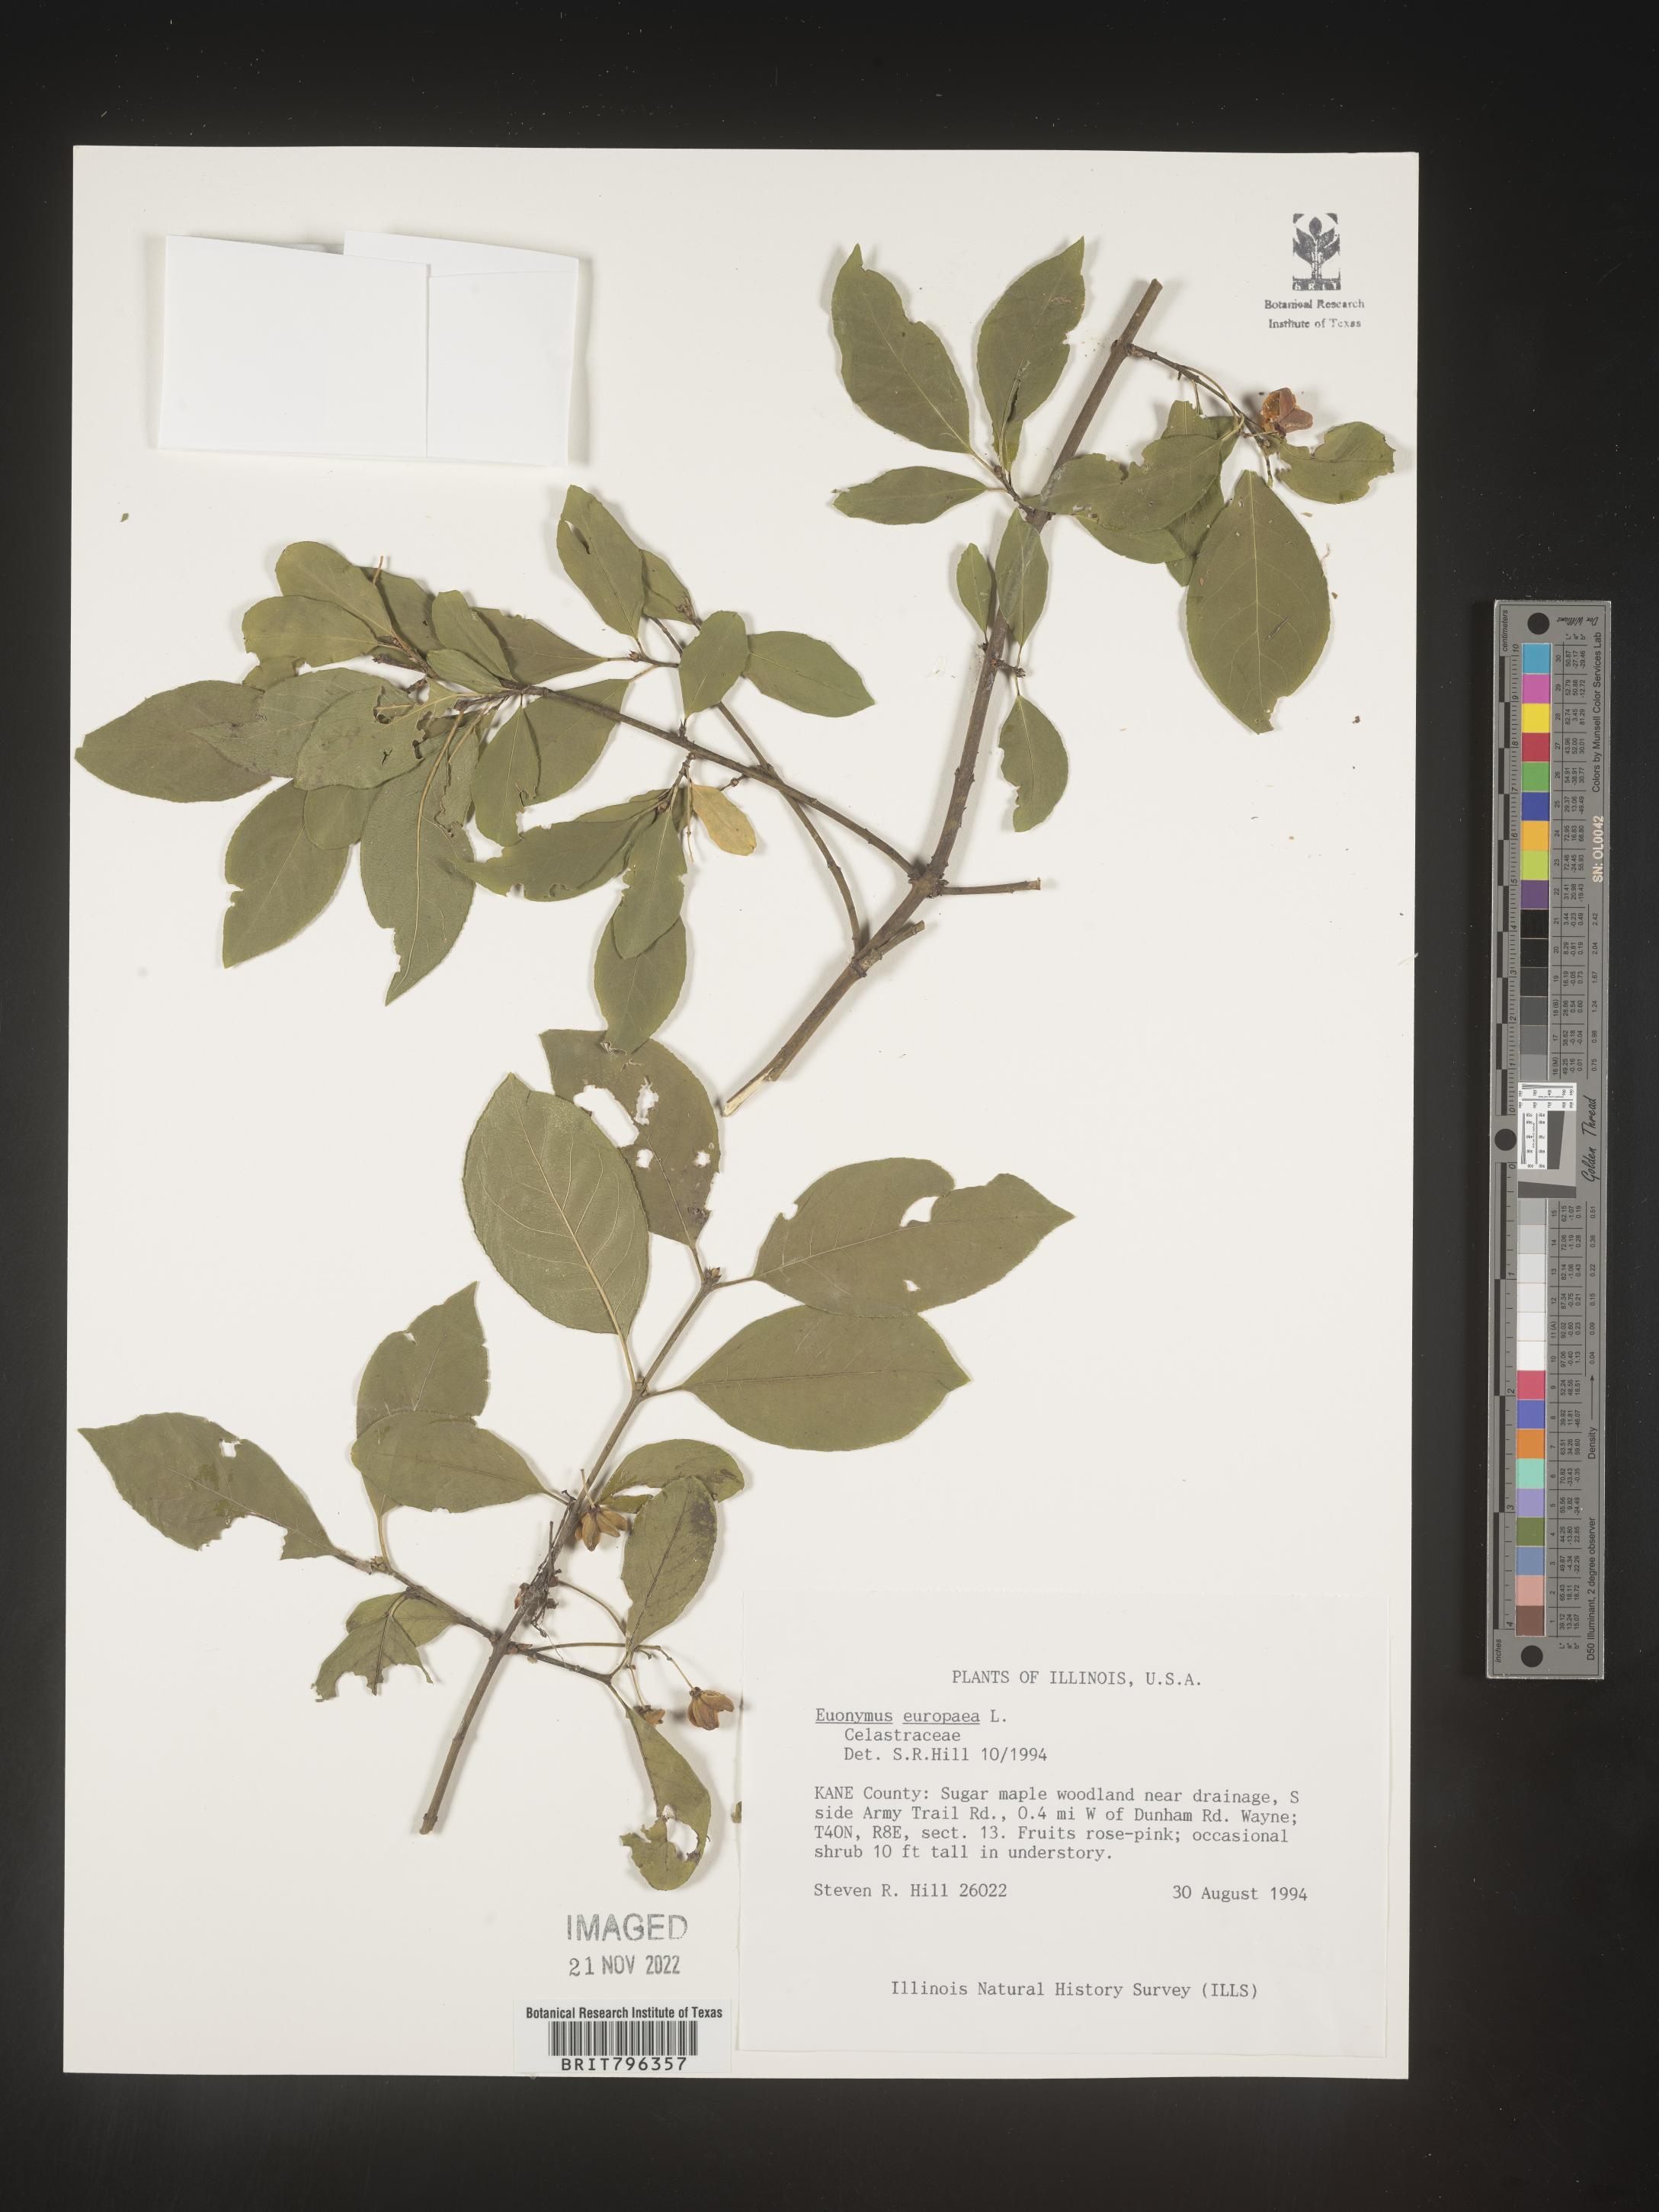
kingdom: Plantae
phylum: Tracheophyta
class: Magnoliopsida
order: Celastrales
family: Celastraceae
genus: Euonymus
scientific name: Euonymus europaeus
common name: Spindle
